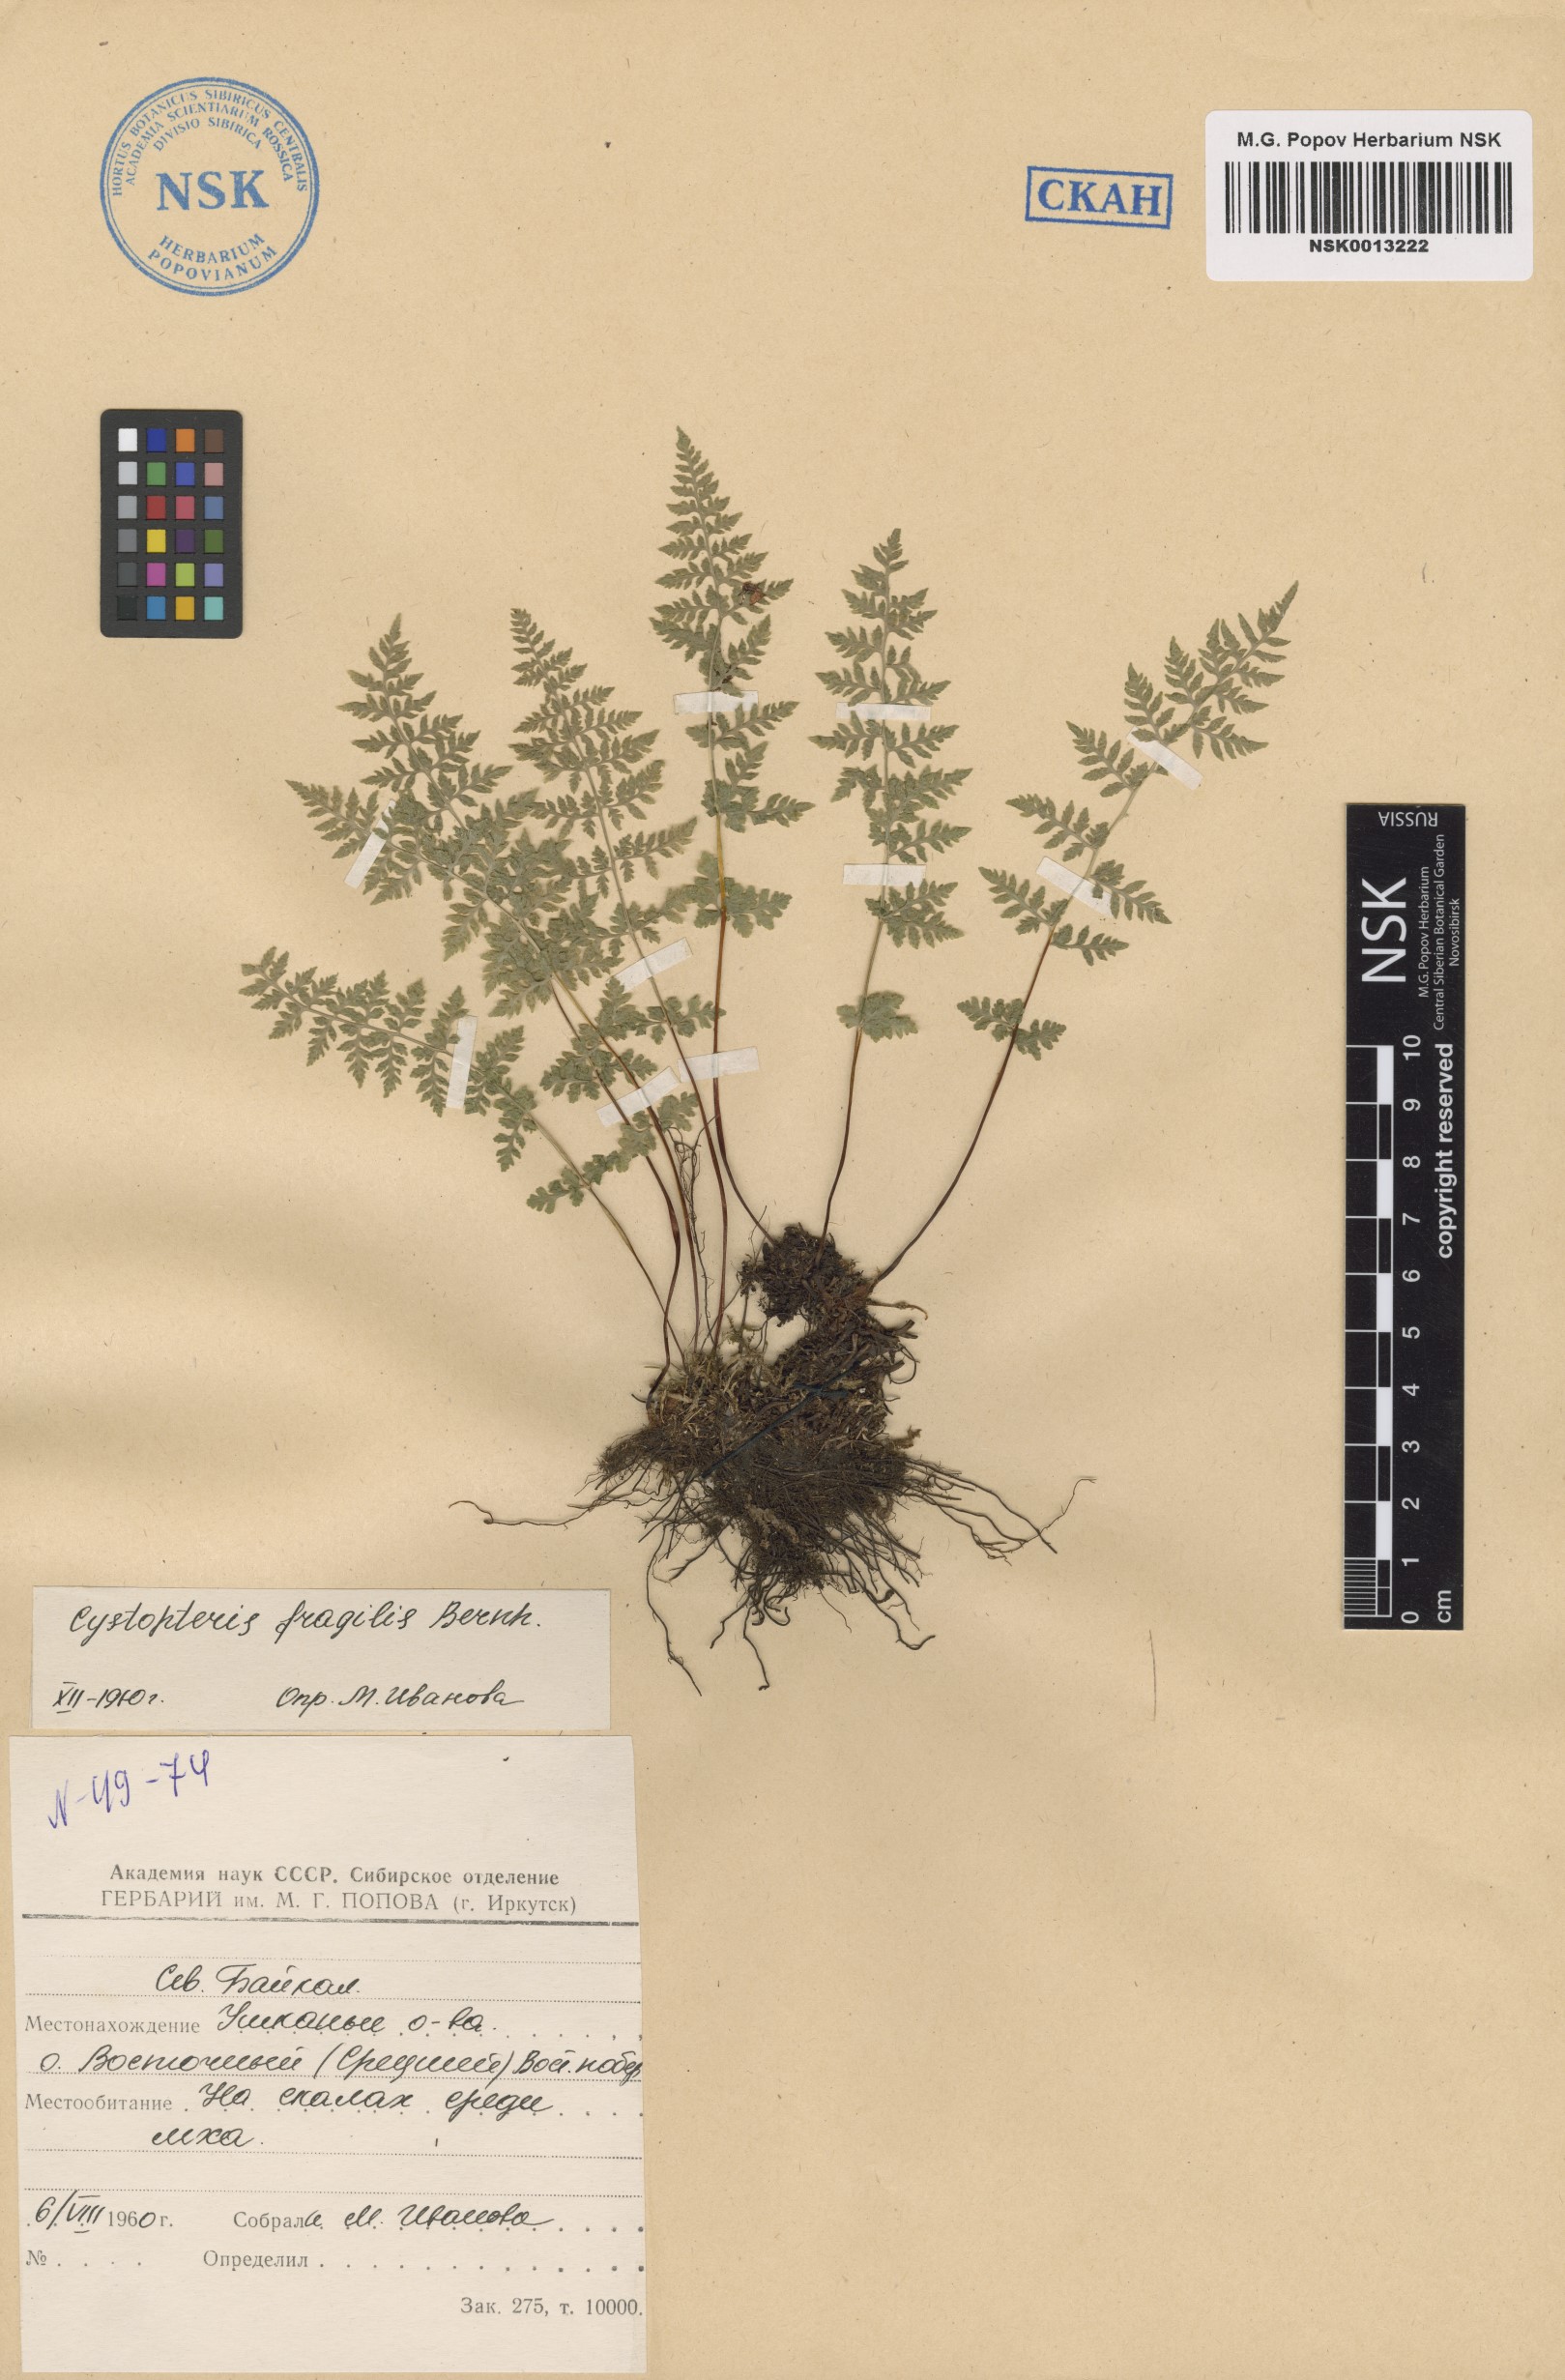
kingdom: Plantae
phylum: Tracheophyta
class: Polypodiopsida
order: Polypodiales
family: Cystopteridaceae
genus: Cystopteris
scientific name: Cystopteris fragilis
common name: Brittle bladder fern
